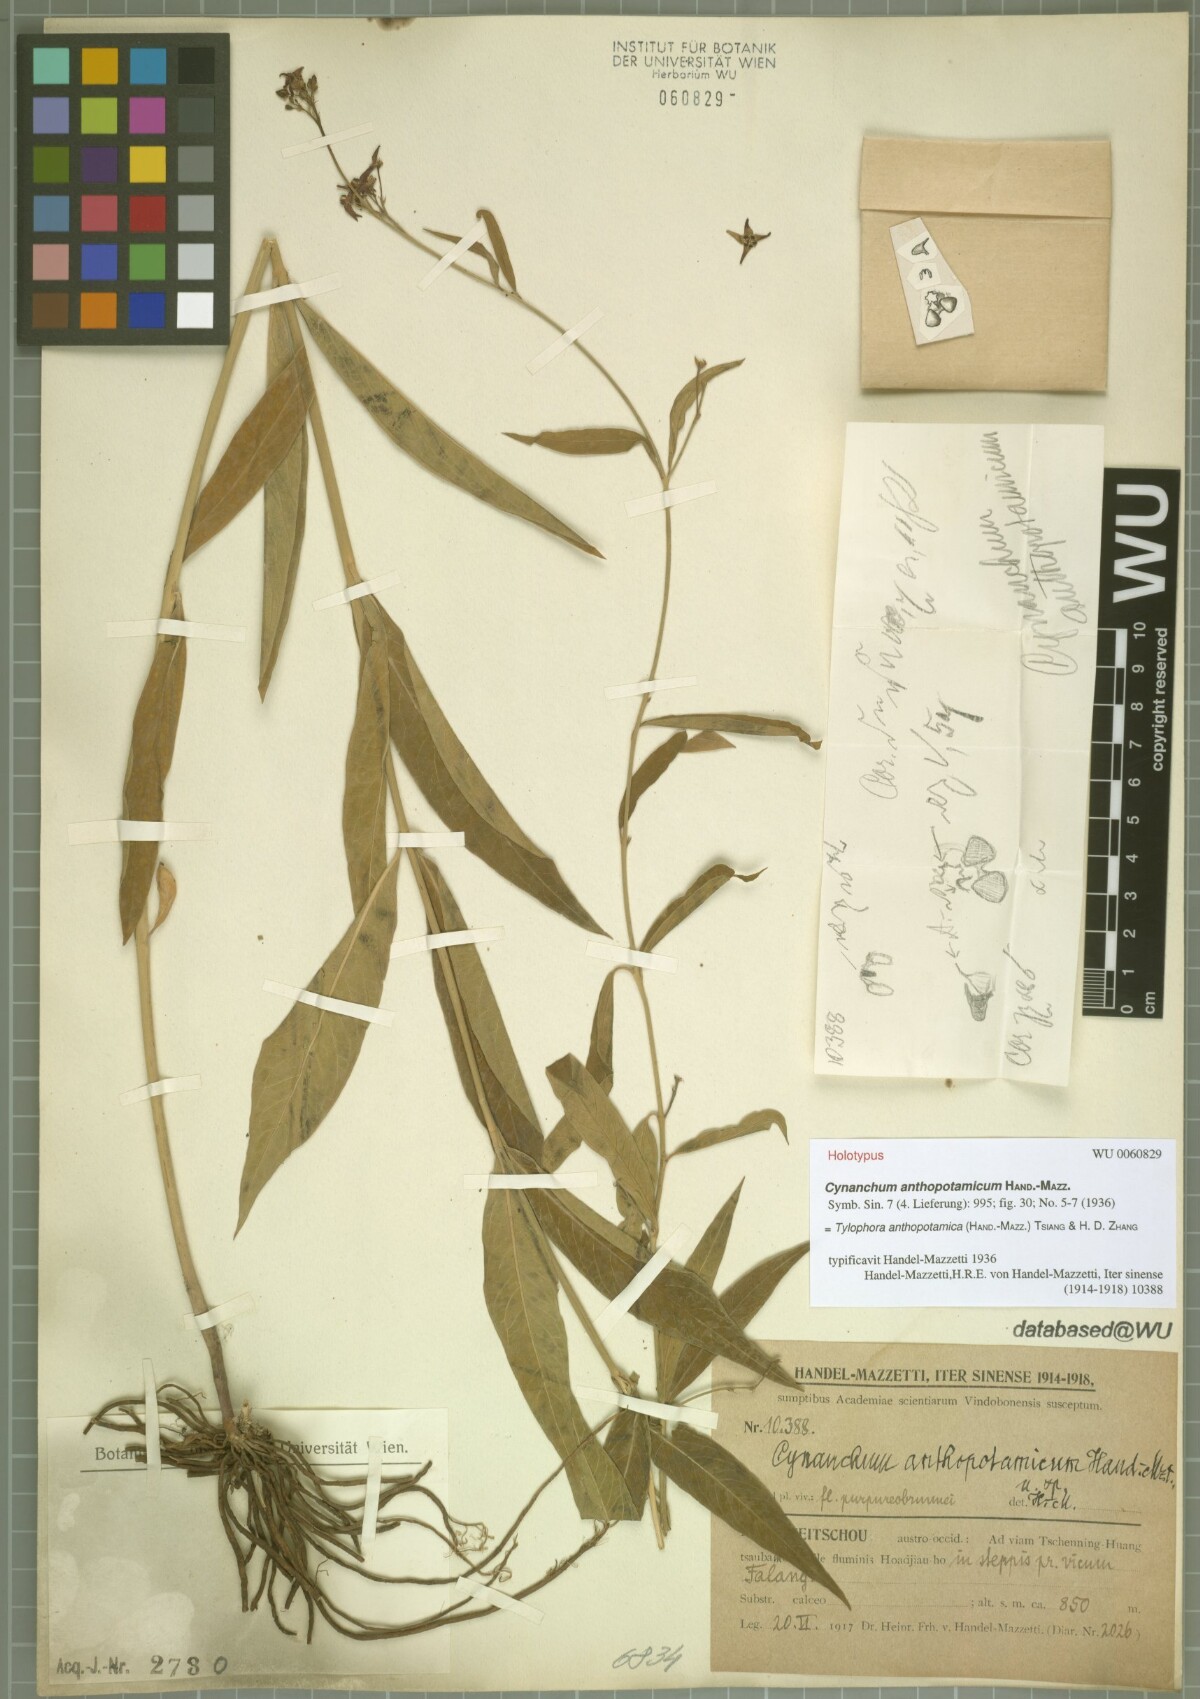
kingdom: Plantae
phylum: Tracheophyta
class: Magnoliopsida
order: Gentianales
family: Apocynaceae
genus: Vincetoxicum
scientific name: Vincetoxicum anthopotamicum
